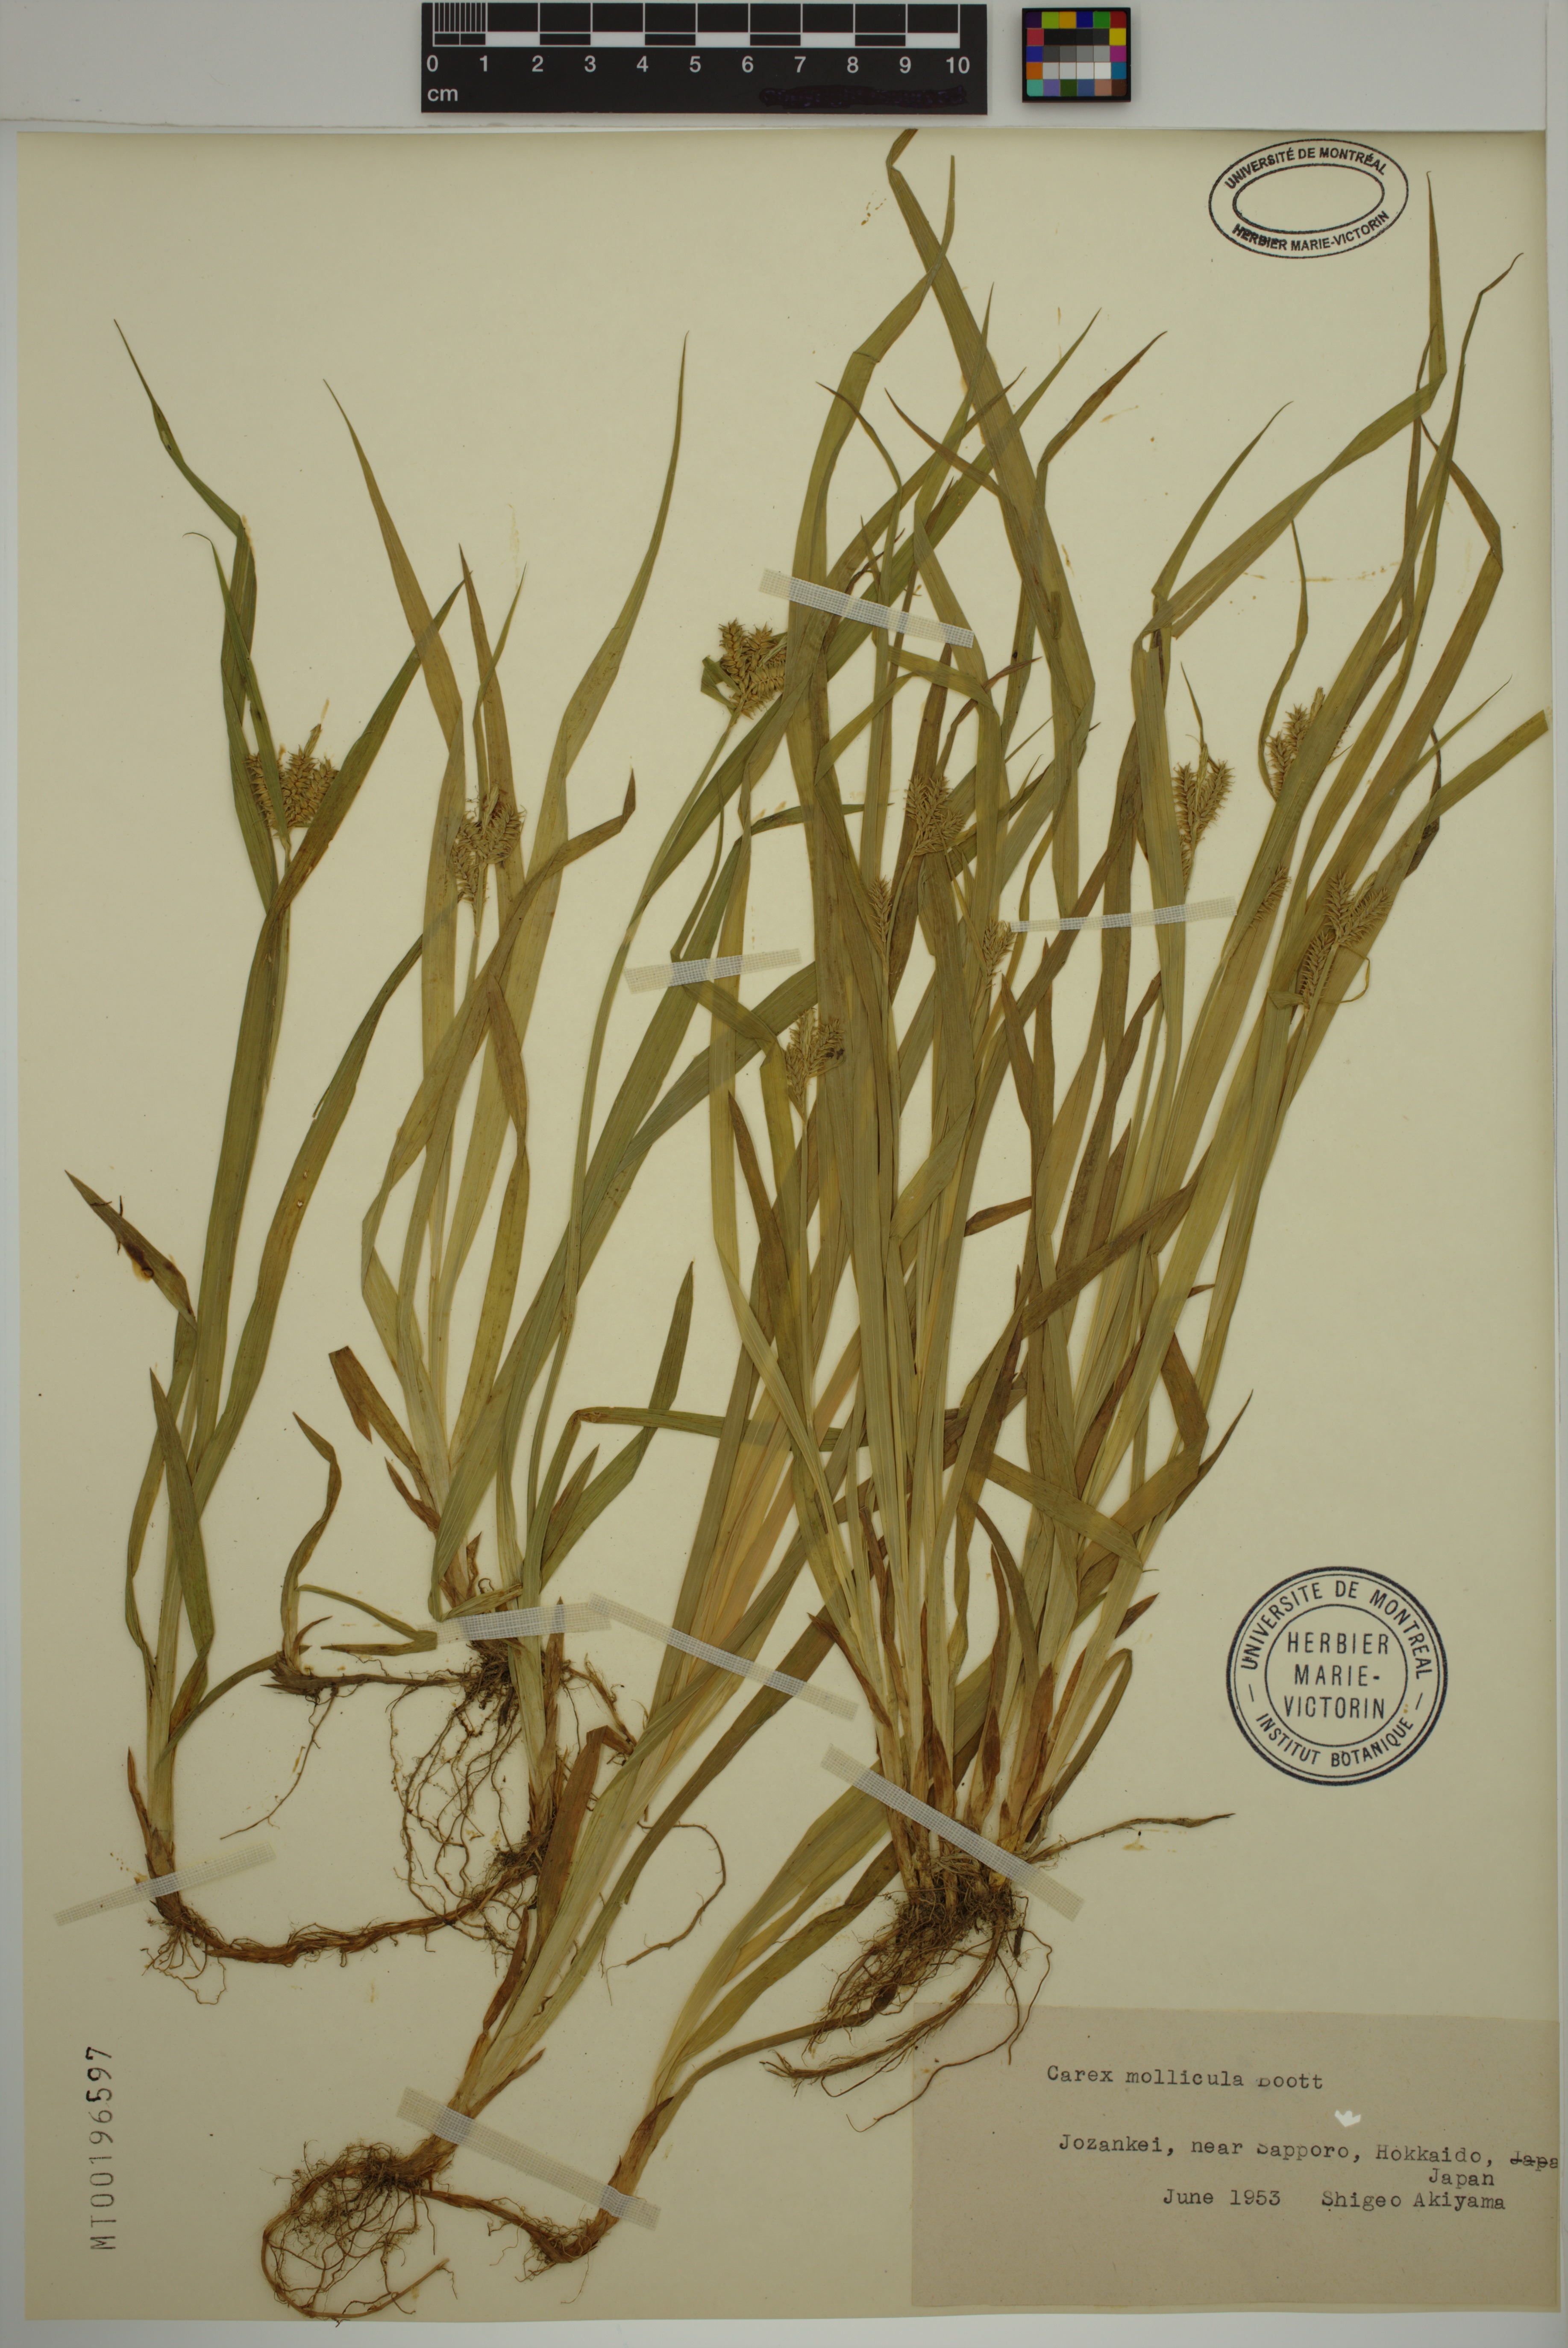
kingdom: Plantae
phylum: Tracheophyta
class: Liliopsida
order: Poales
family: Cyperaceae
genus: Carex
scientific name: Carex mollicula
